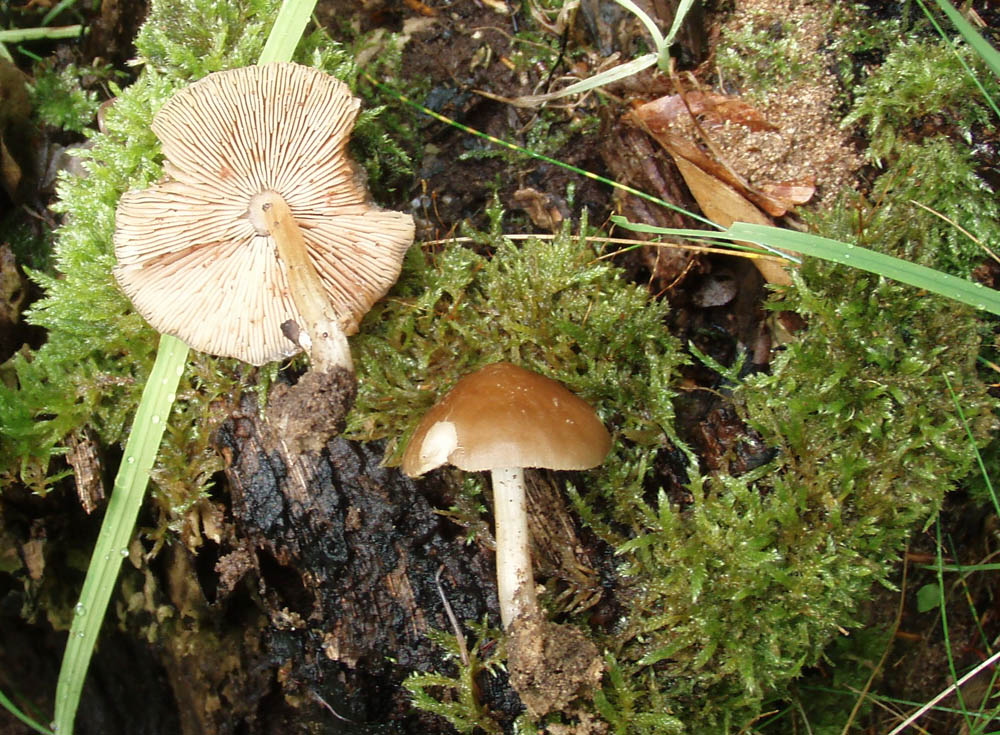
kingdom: Fungi
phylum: Basidiomycota
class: Agaricomycetes
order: Agaricales
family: Pluteaceae
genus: Pluteus
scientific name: Pluteus phlebophorus
